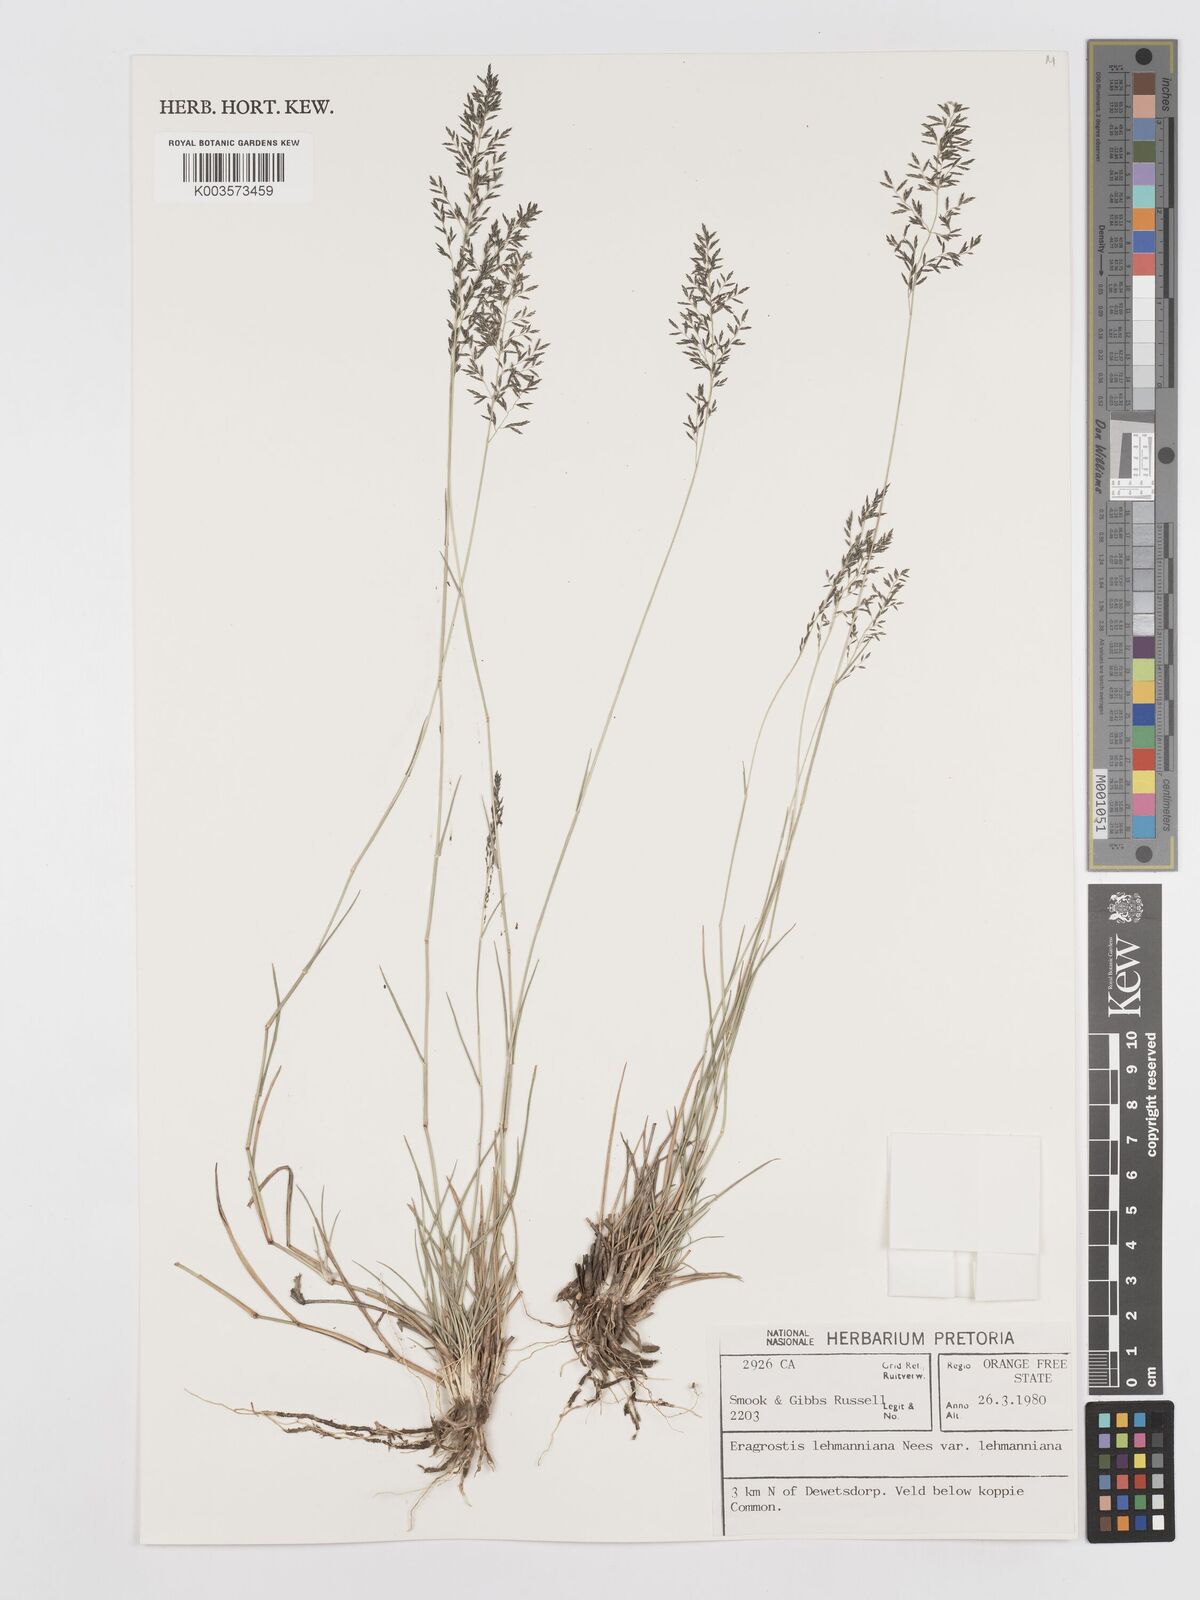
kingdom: Plantae
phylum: Tracheophyta
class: Liliopsida
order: Poales
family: Poaceae
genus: Eragrostis
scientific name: Eragrostis lehmanniana
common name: Lehmann lovegrass
